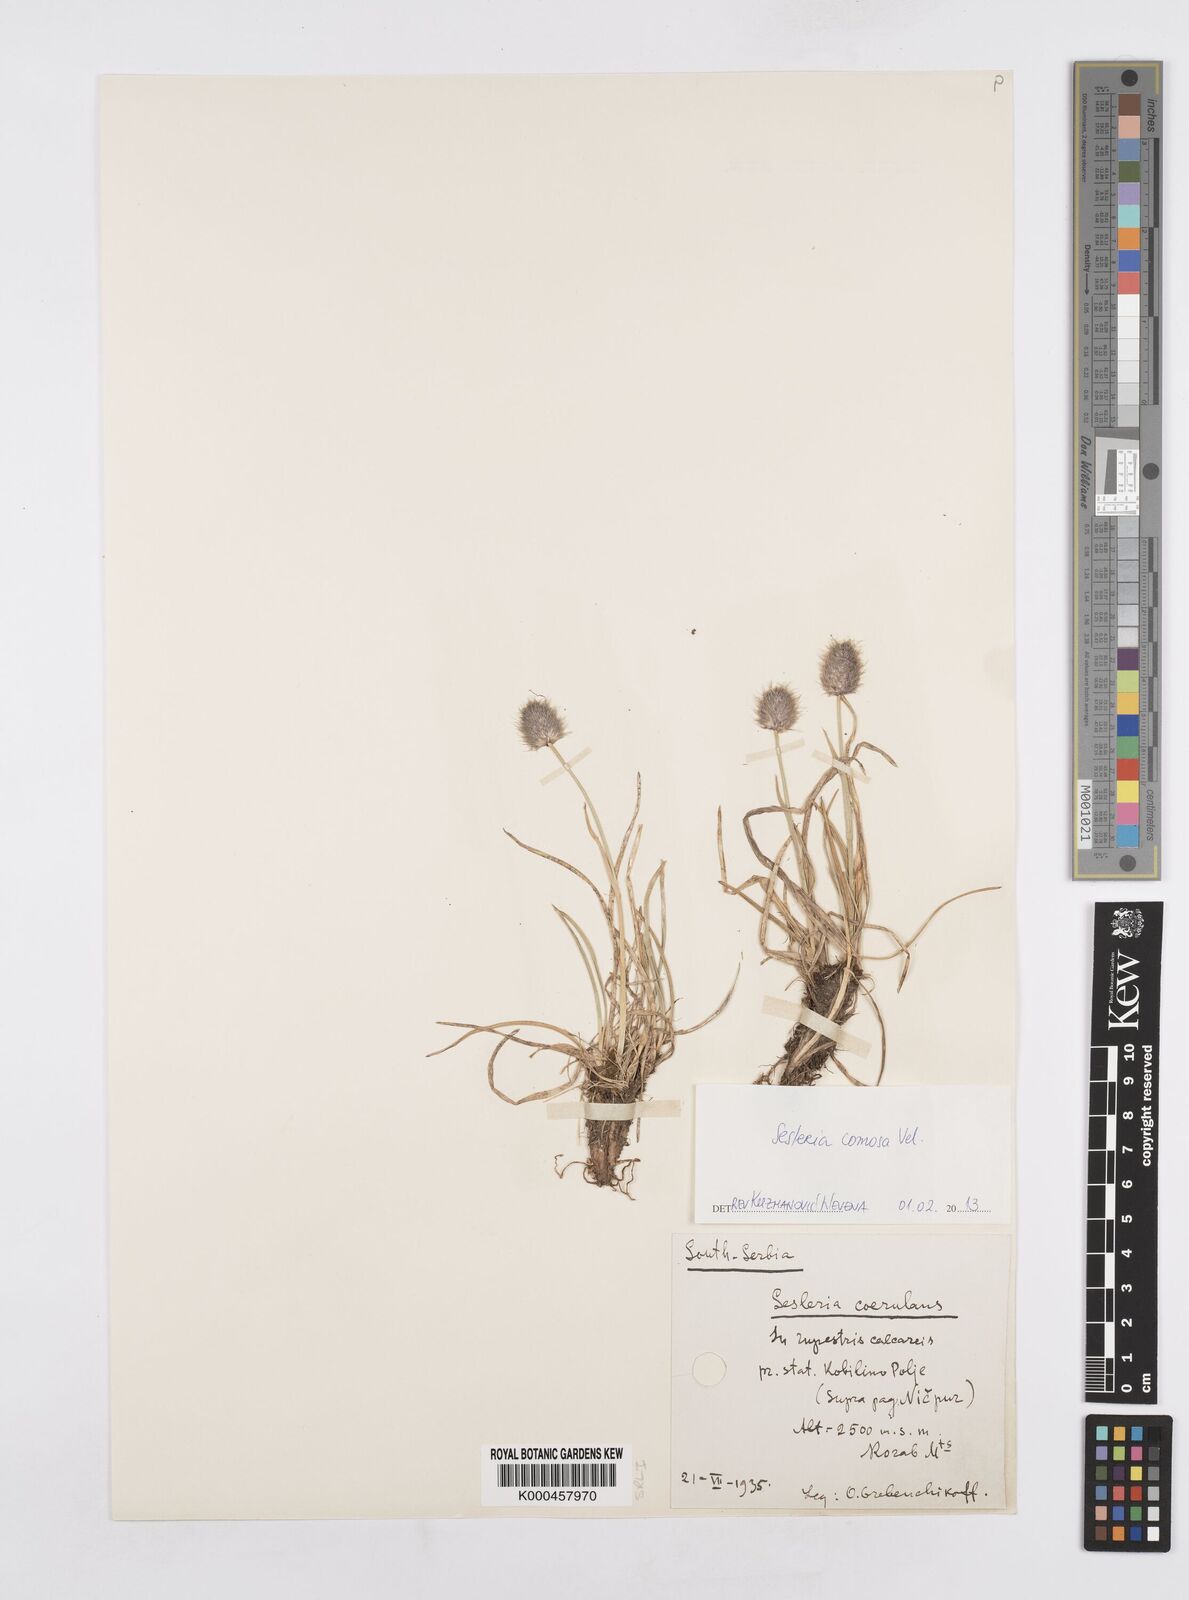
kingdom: Plantae
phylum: Tracheophyta
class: Liliopsida
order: Poales
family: Poaceae
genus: Sesleria
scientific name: Sesleria coerulans
